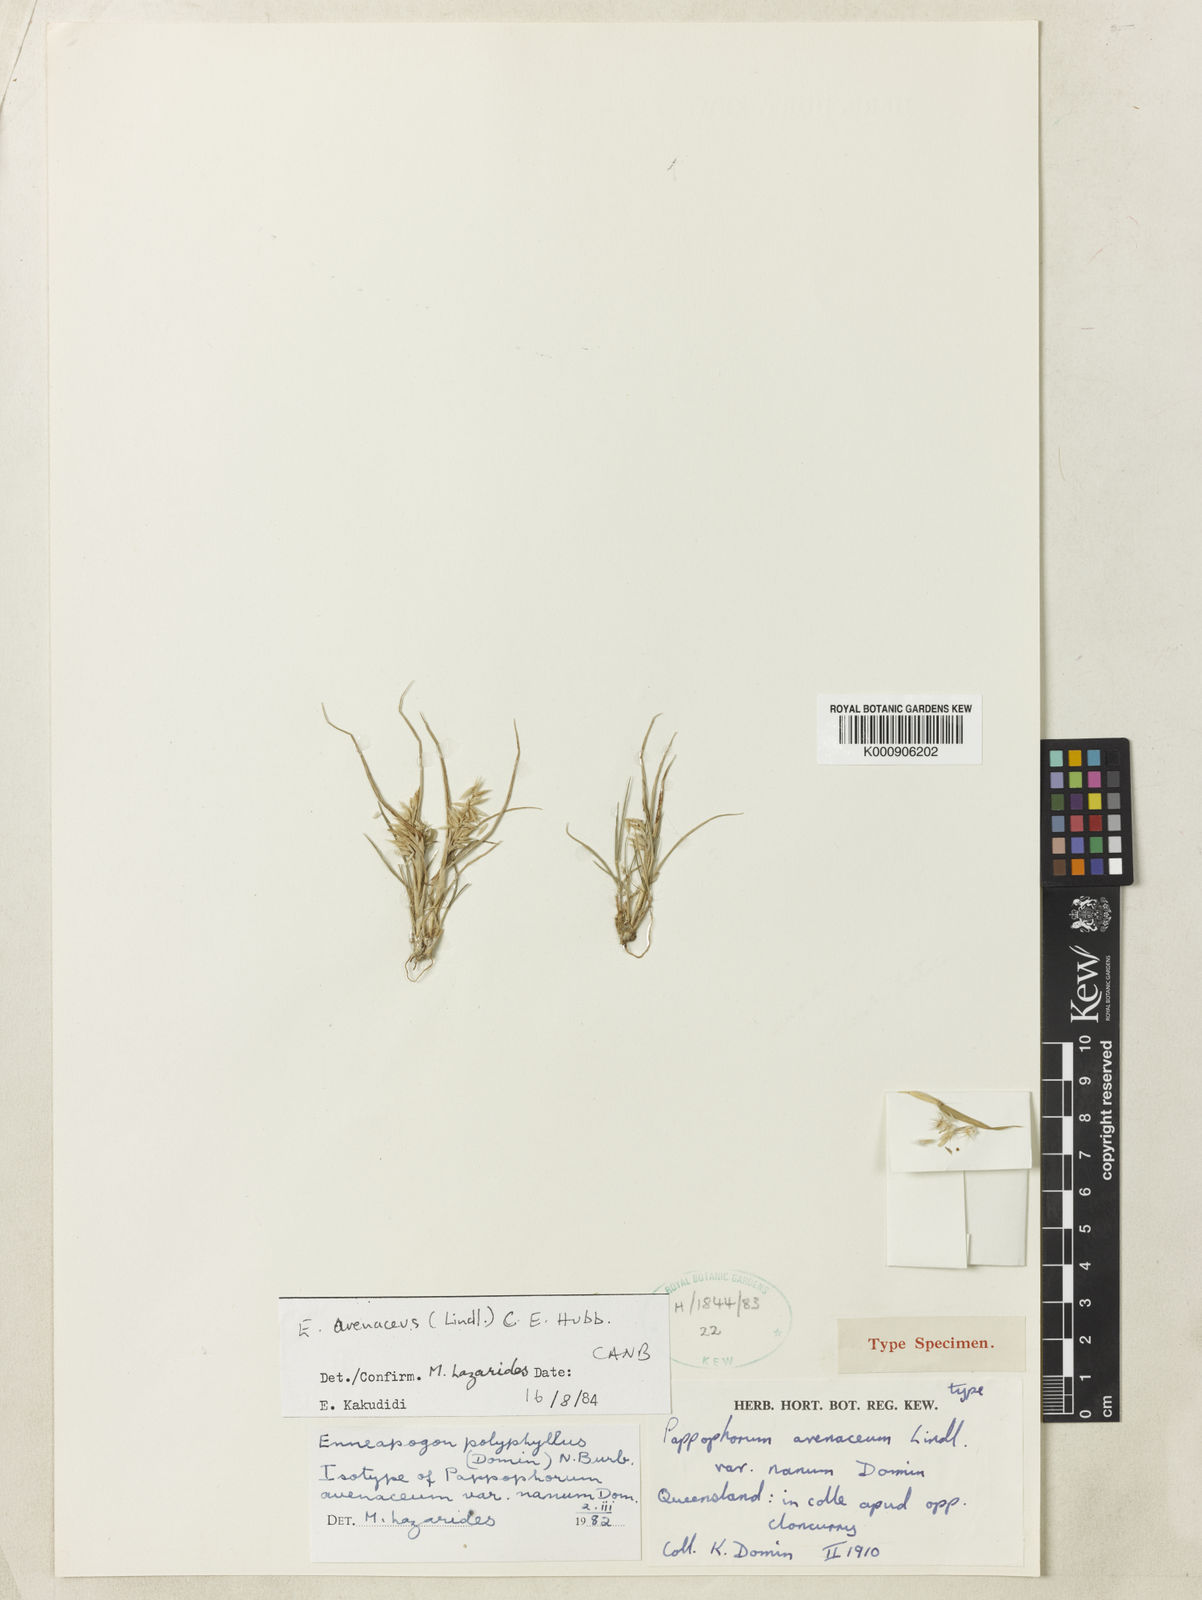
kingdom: Plantae
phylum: Tracheophyta
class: Liliopsida
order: Poales
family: Poaceae
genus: Enneapogon
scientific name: Enneapogon avenaceus
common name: Hairy oat grass
